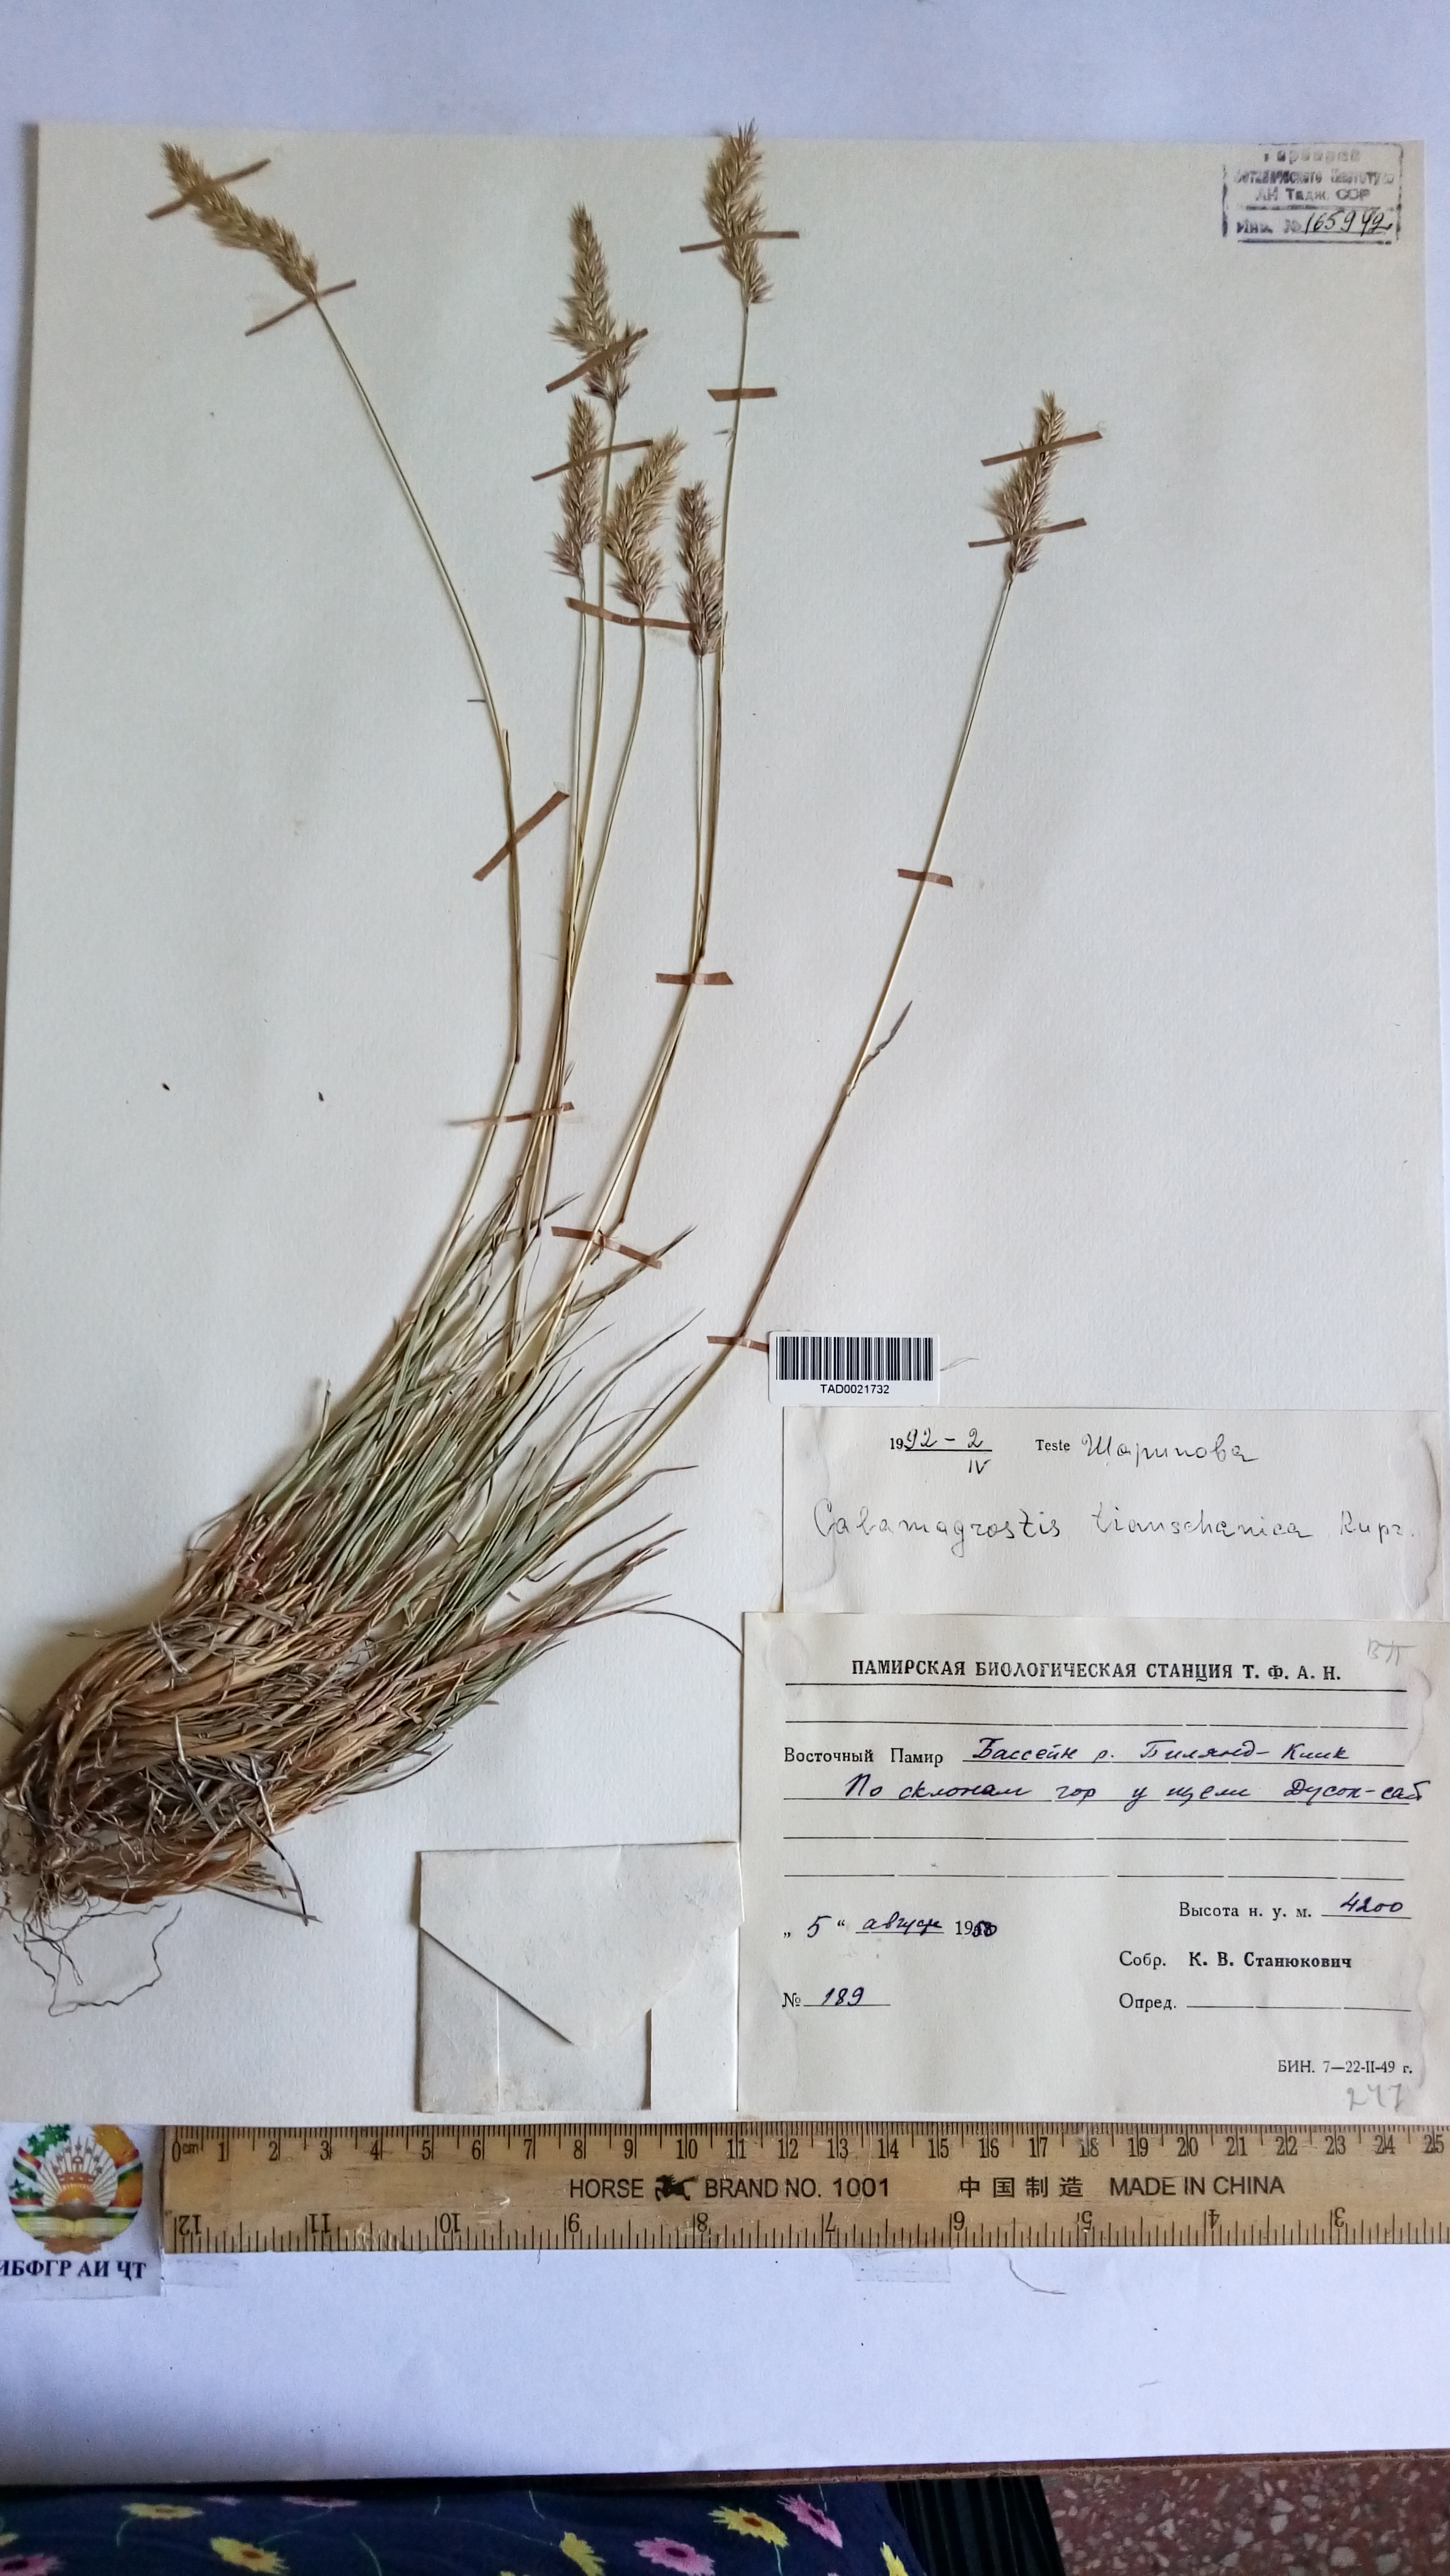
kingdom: Plantae
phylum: Tracheophyta
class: Liliopsida
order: Poales
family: Poaceae
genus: Calamagrostis
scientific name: Calamagrostis tianschanica
